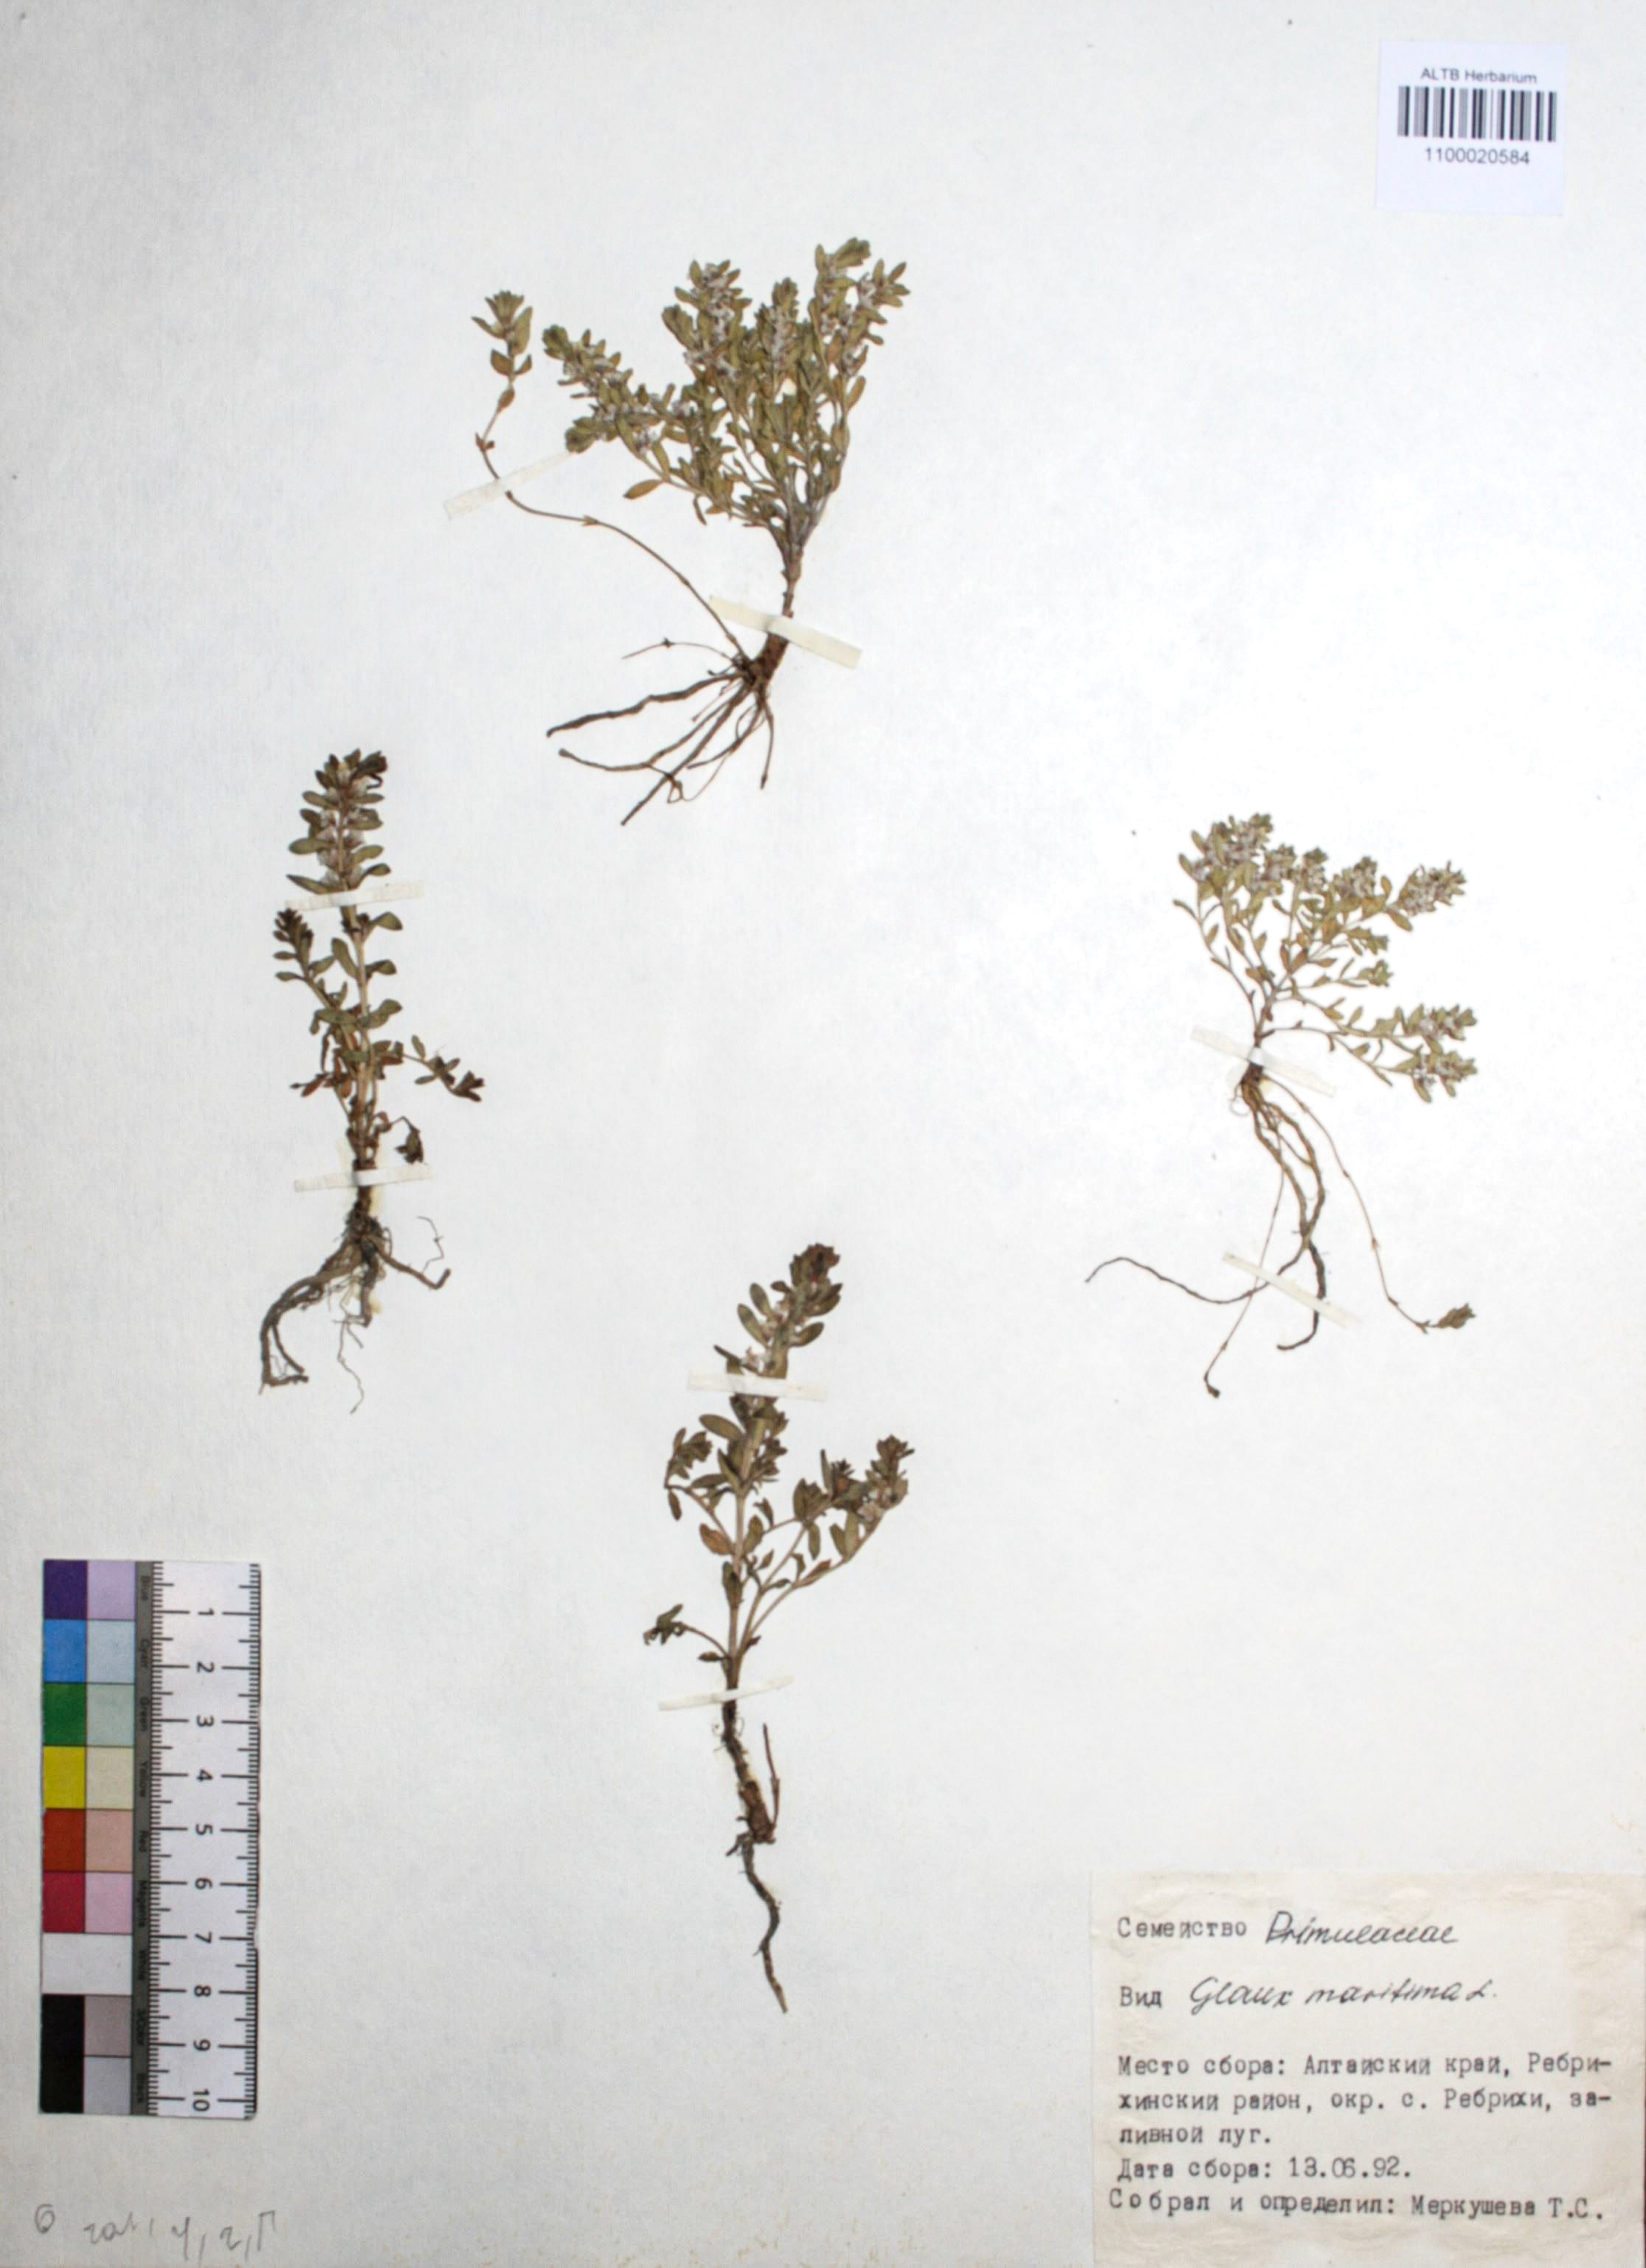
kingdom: Plantae
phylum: Tracheophyta
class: Magnoliopsida
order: Ericales
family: Primulaceae
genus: Lysimachia
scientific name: Lysimachia maritima
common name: Sea milkwort
